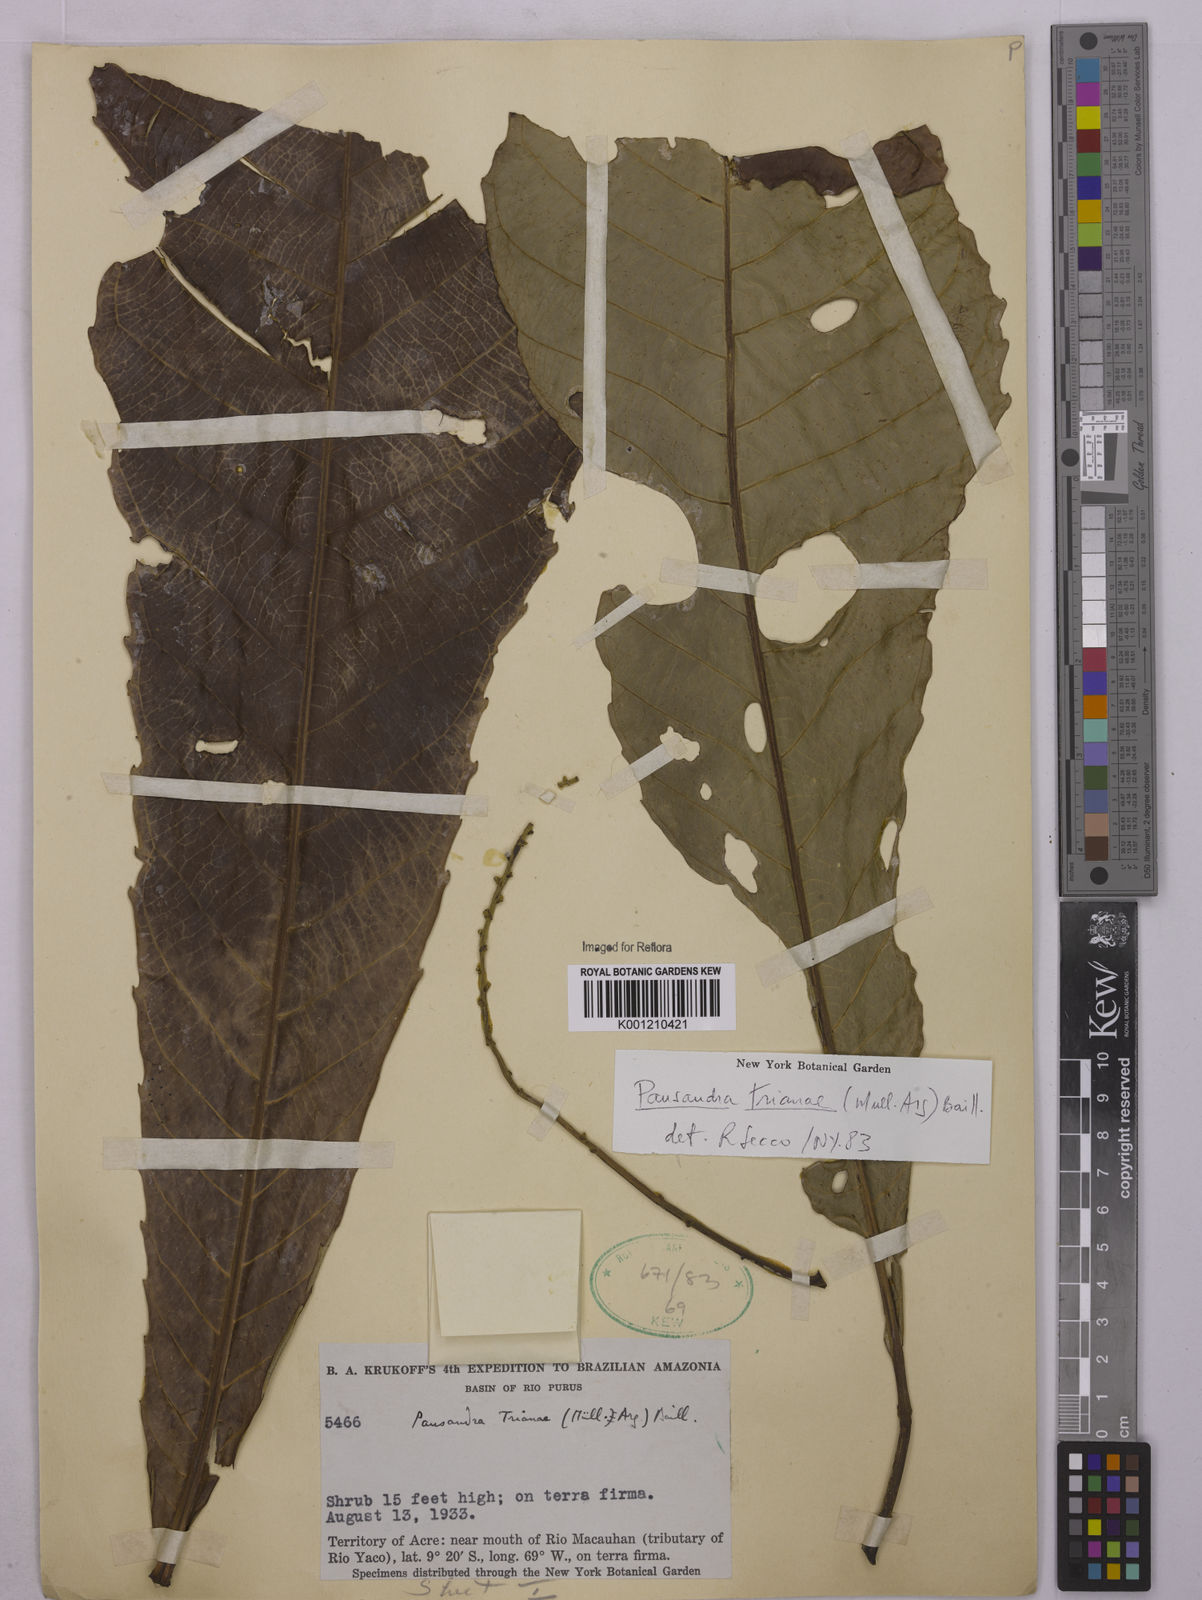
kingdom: Plantae
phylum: Tracheophyta
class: Magnoliopsida
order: Malpighiales
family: Euphorbiaceae
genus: Pausandra
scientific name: Pausandra
